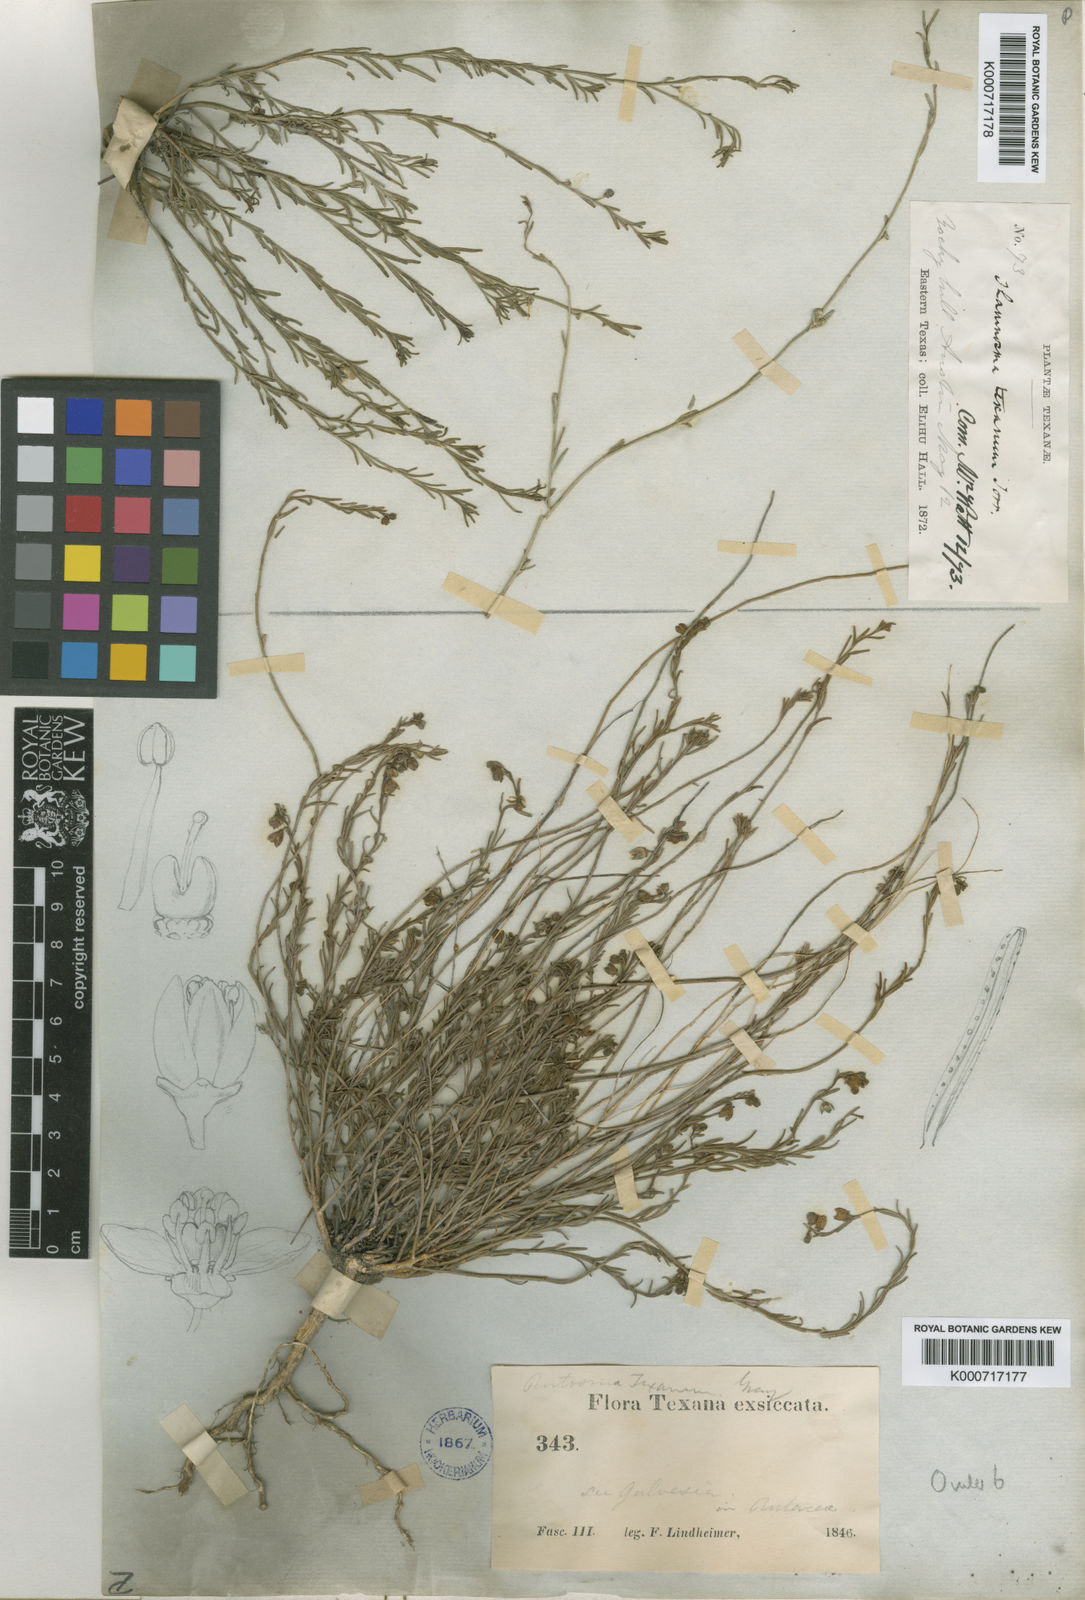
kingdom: Plantae
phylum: Tracheophyta
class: Magnoliopsida
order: Sapindales
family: Rutaceae
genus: Thamnosma
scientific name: Thamnosma texana
